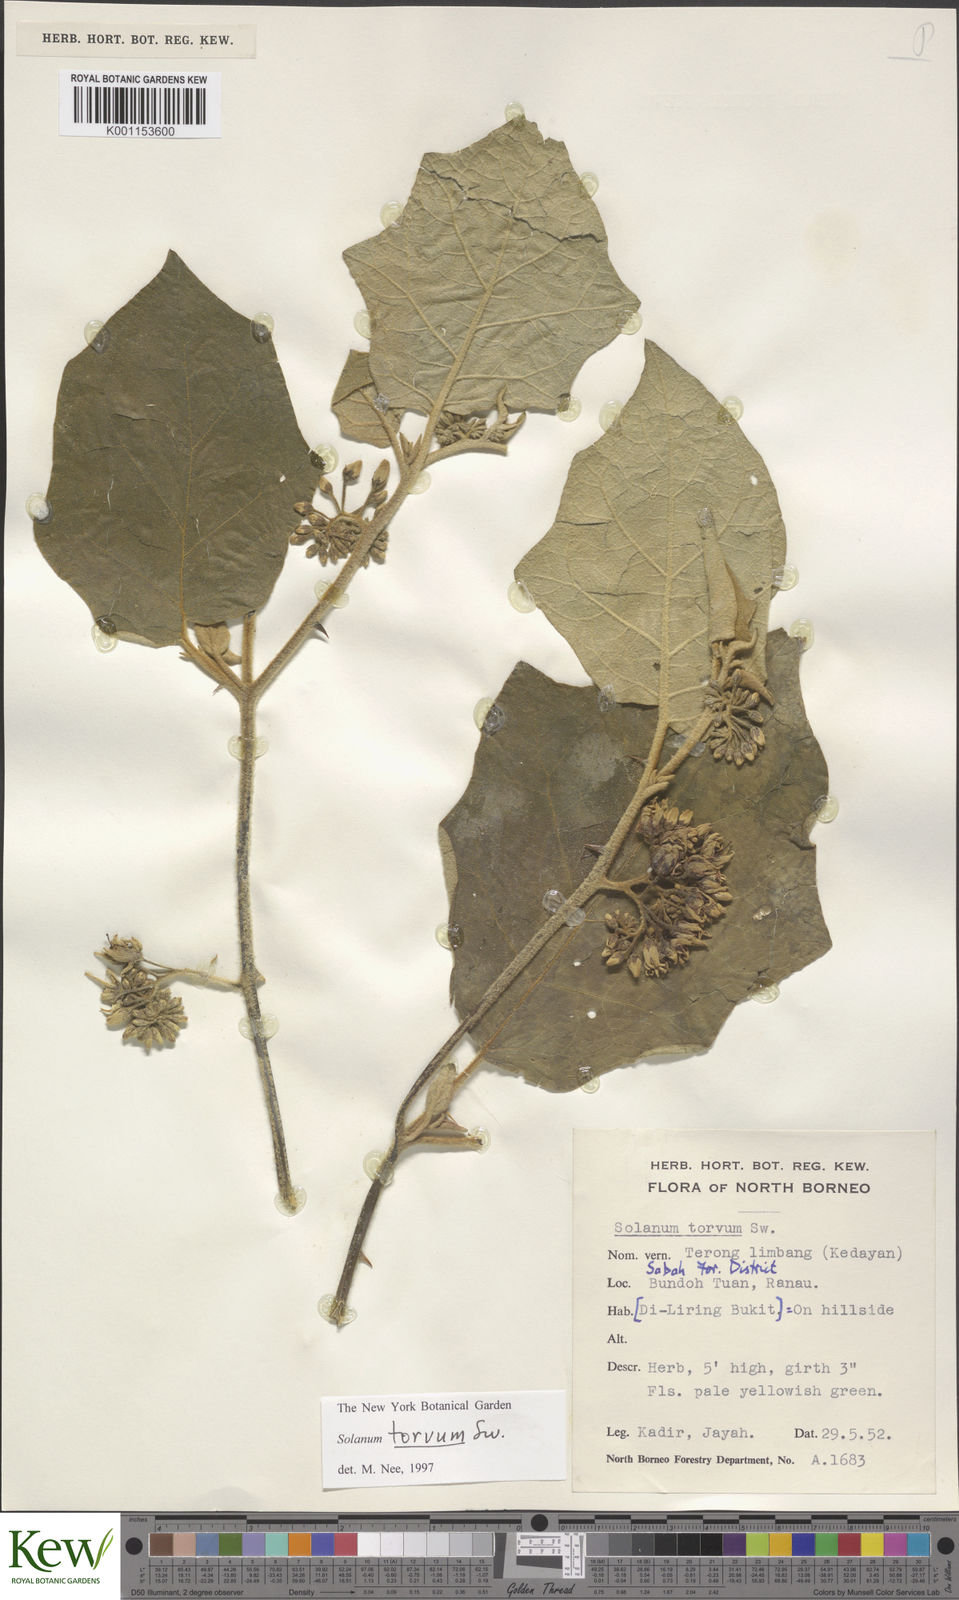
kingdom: Plantae
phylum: Tracheophyta
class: Magnoliopsida
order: Solanales
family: Solanaceae
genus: Solanum
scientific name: Solanum torvum
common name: Turkey berry
